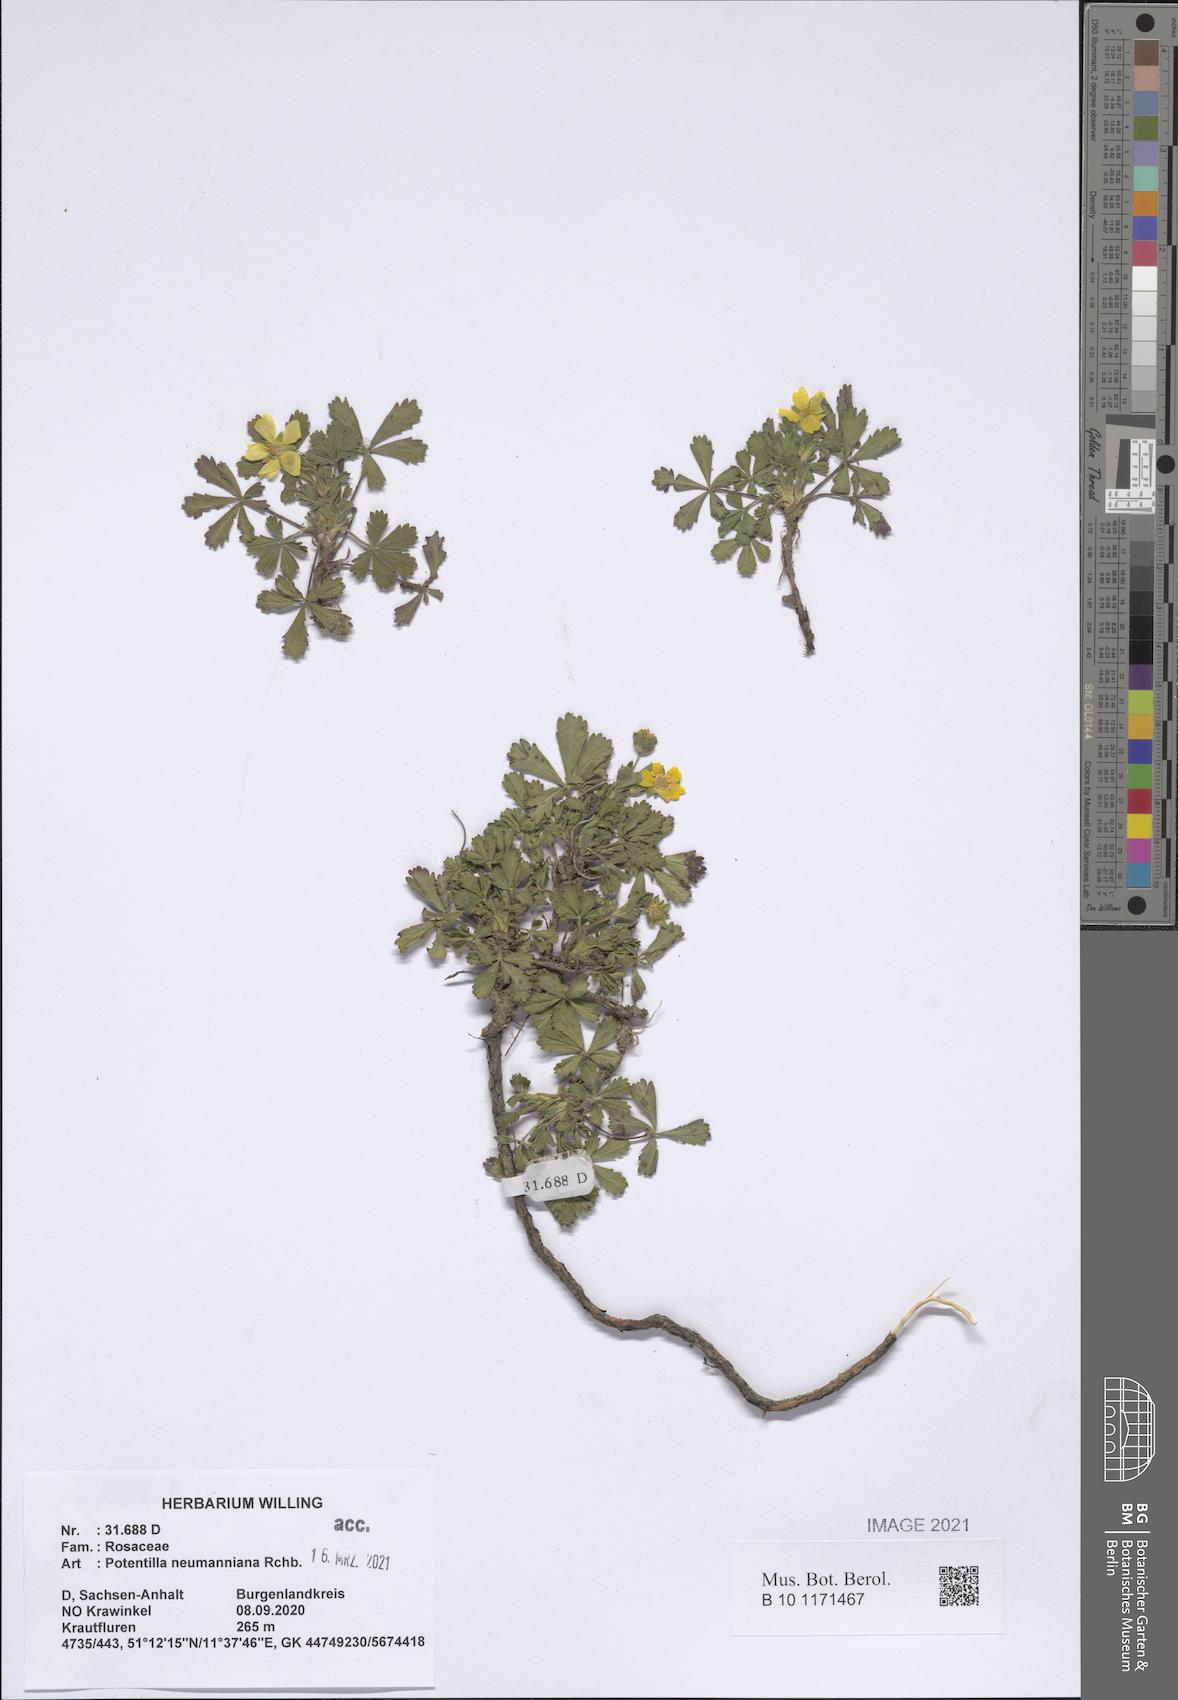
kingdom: Plantae
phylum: Tracheophyta
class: Magnoliopsida
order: Rosales
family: Rosaceae
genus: Potentilla
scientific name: Potentilla verna
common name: Spring cinquefoil
